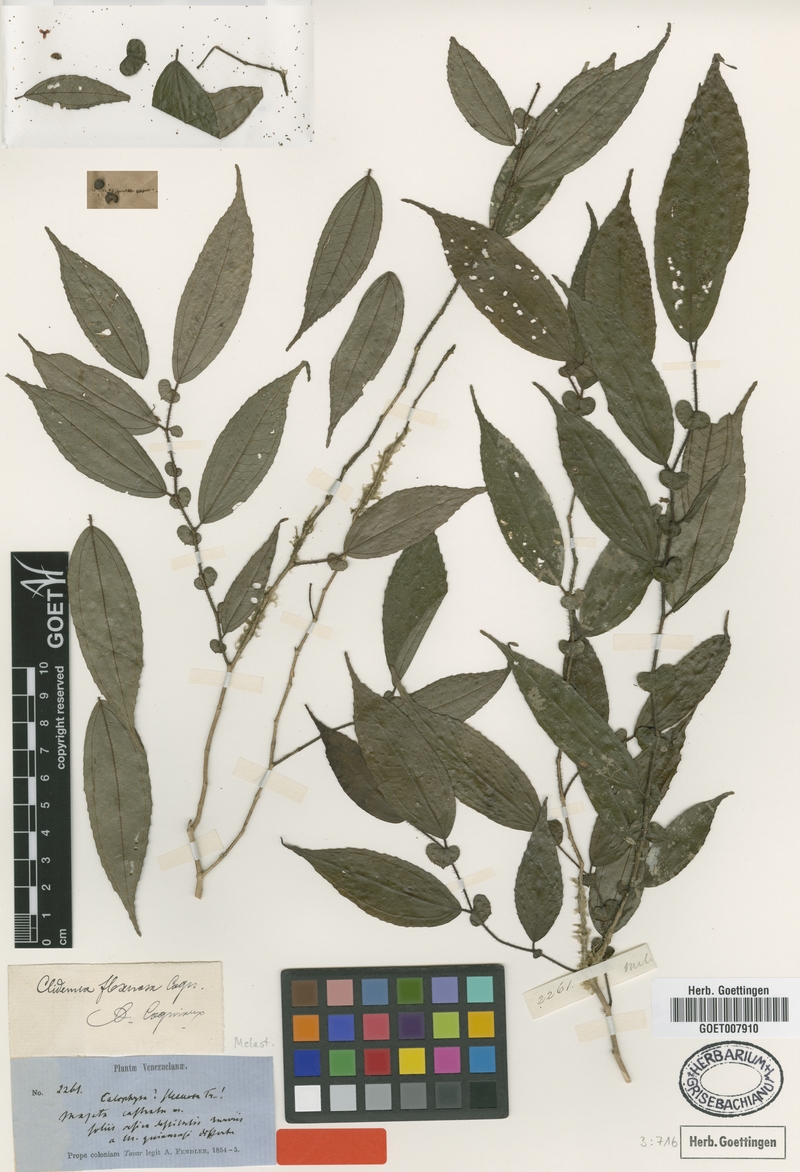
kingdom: Plantae
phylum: Tracheophyta
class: Magnoliopsida
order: Myrtales
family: Melastomataceae
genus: Miconia
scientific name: Miconia flexuosa
